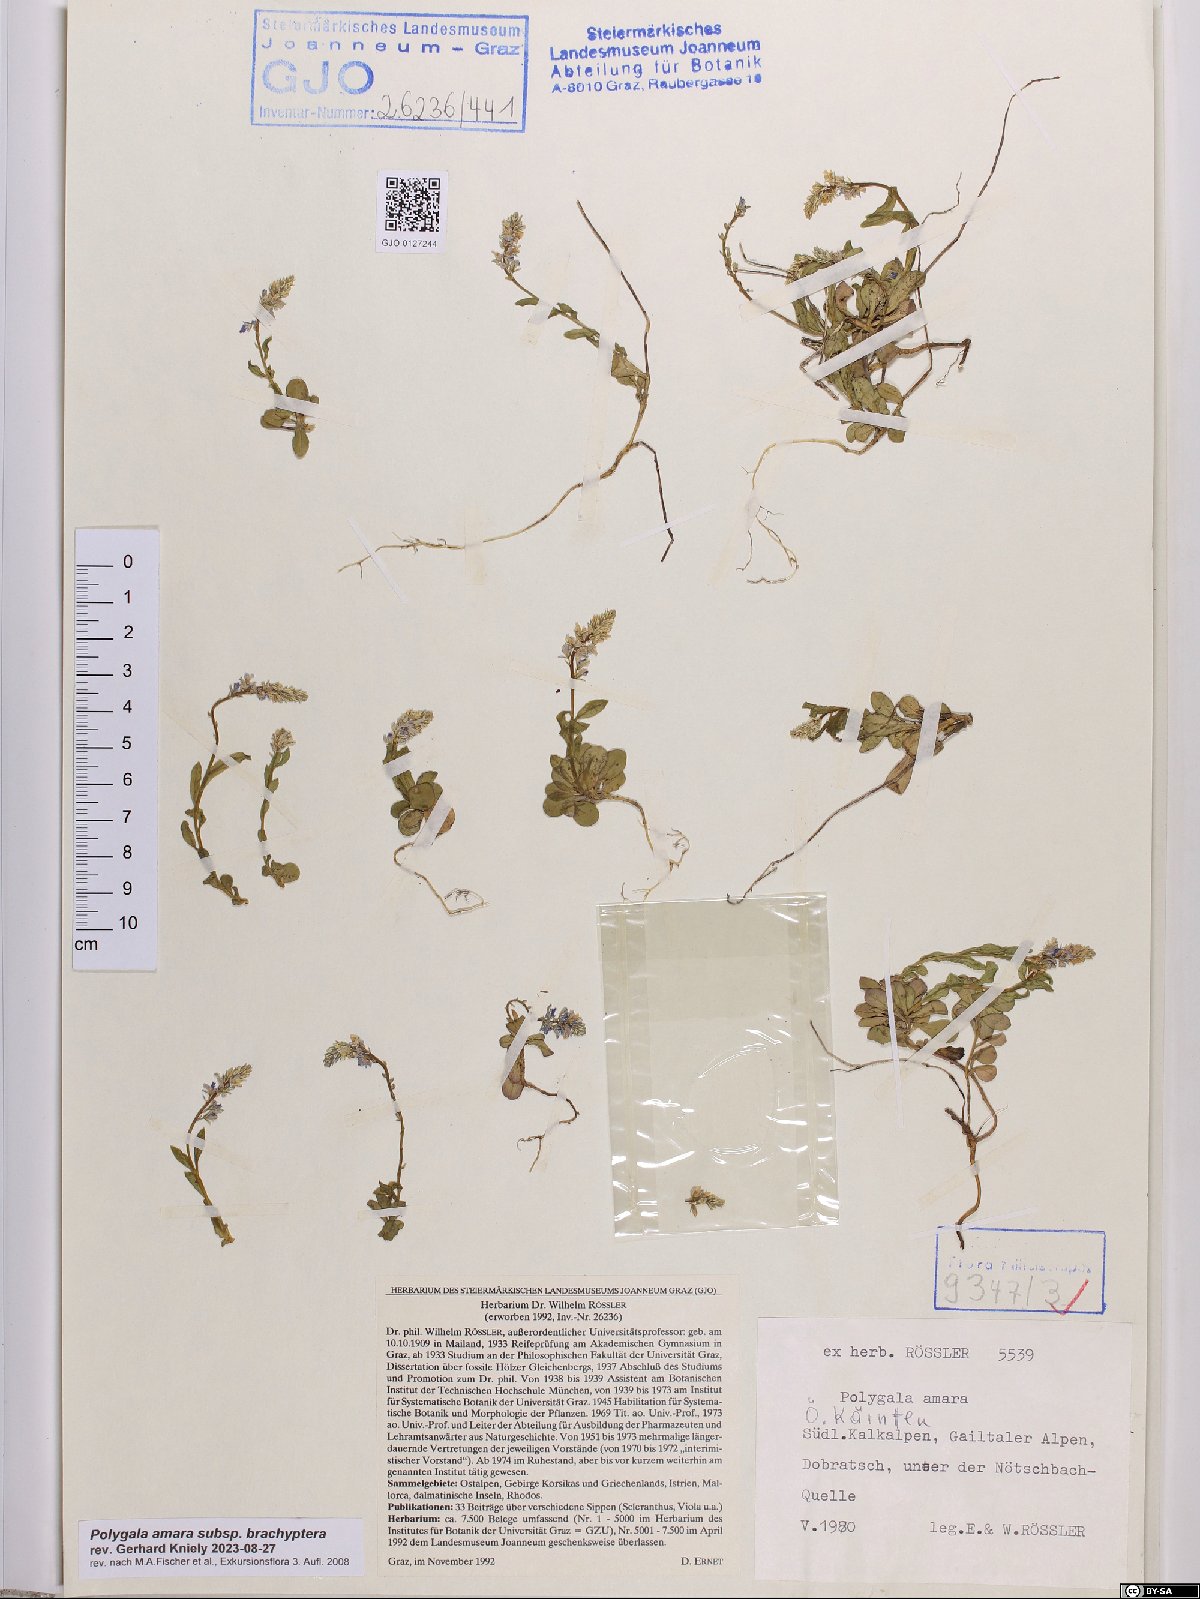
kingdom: Plantae
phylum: Tracheophyta
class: Magnoliopsida
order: Fabales
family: Polygalaceae
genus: Polygala
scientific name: Polygala amara
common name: Milkwort
